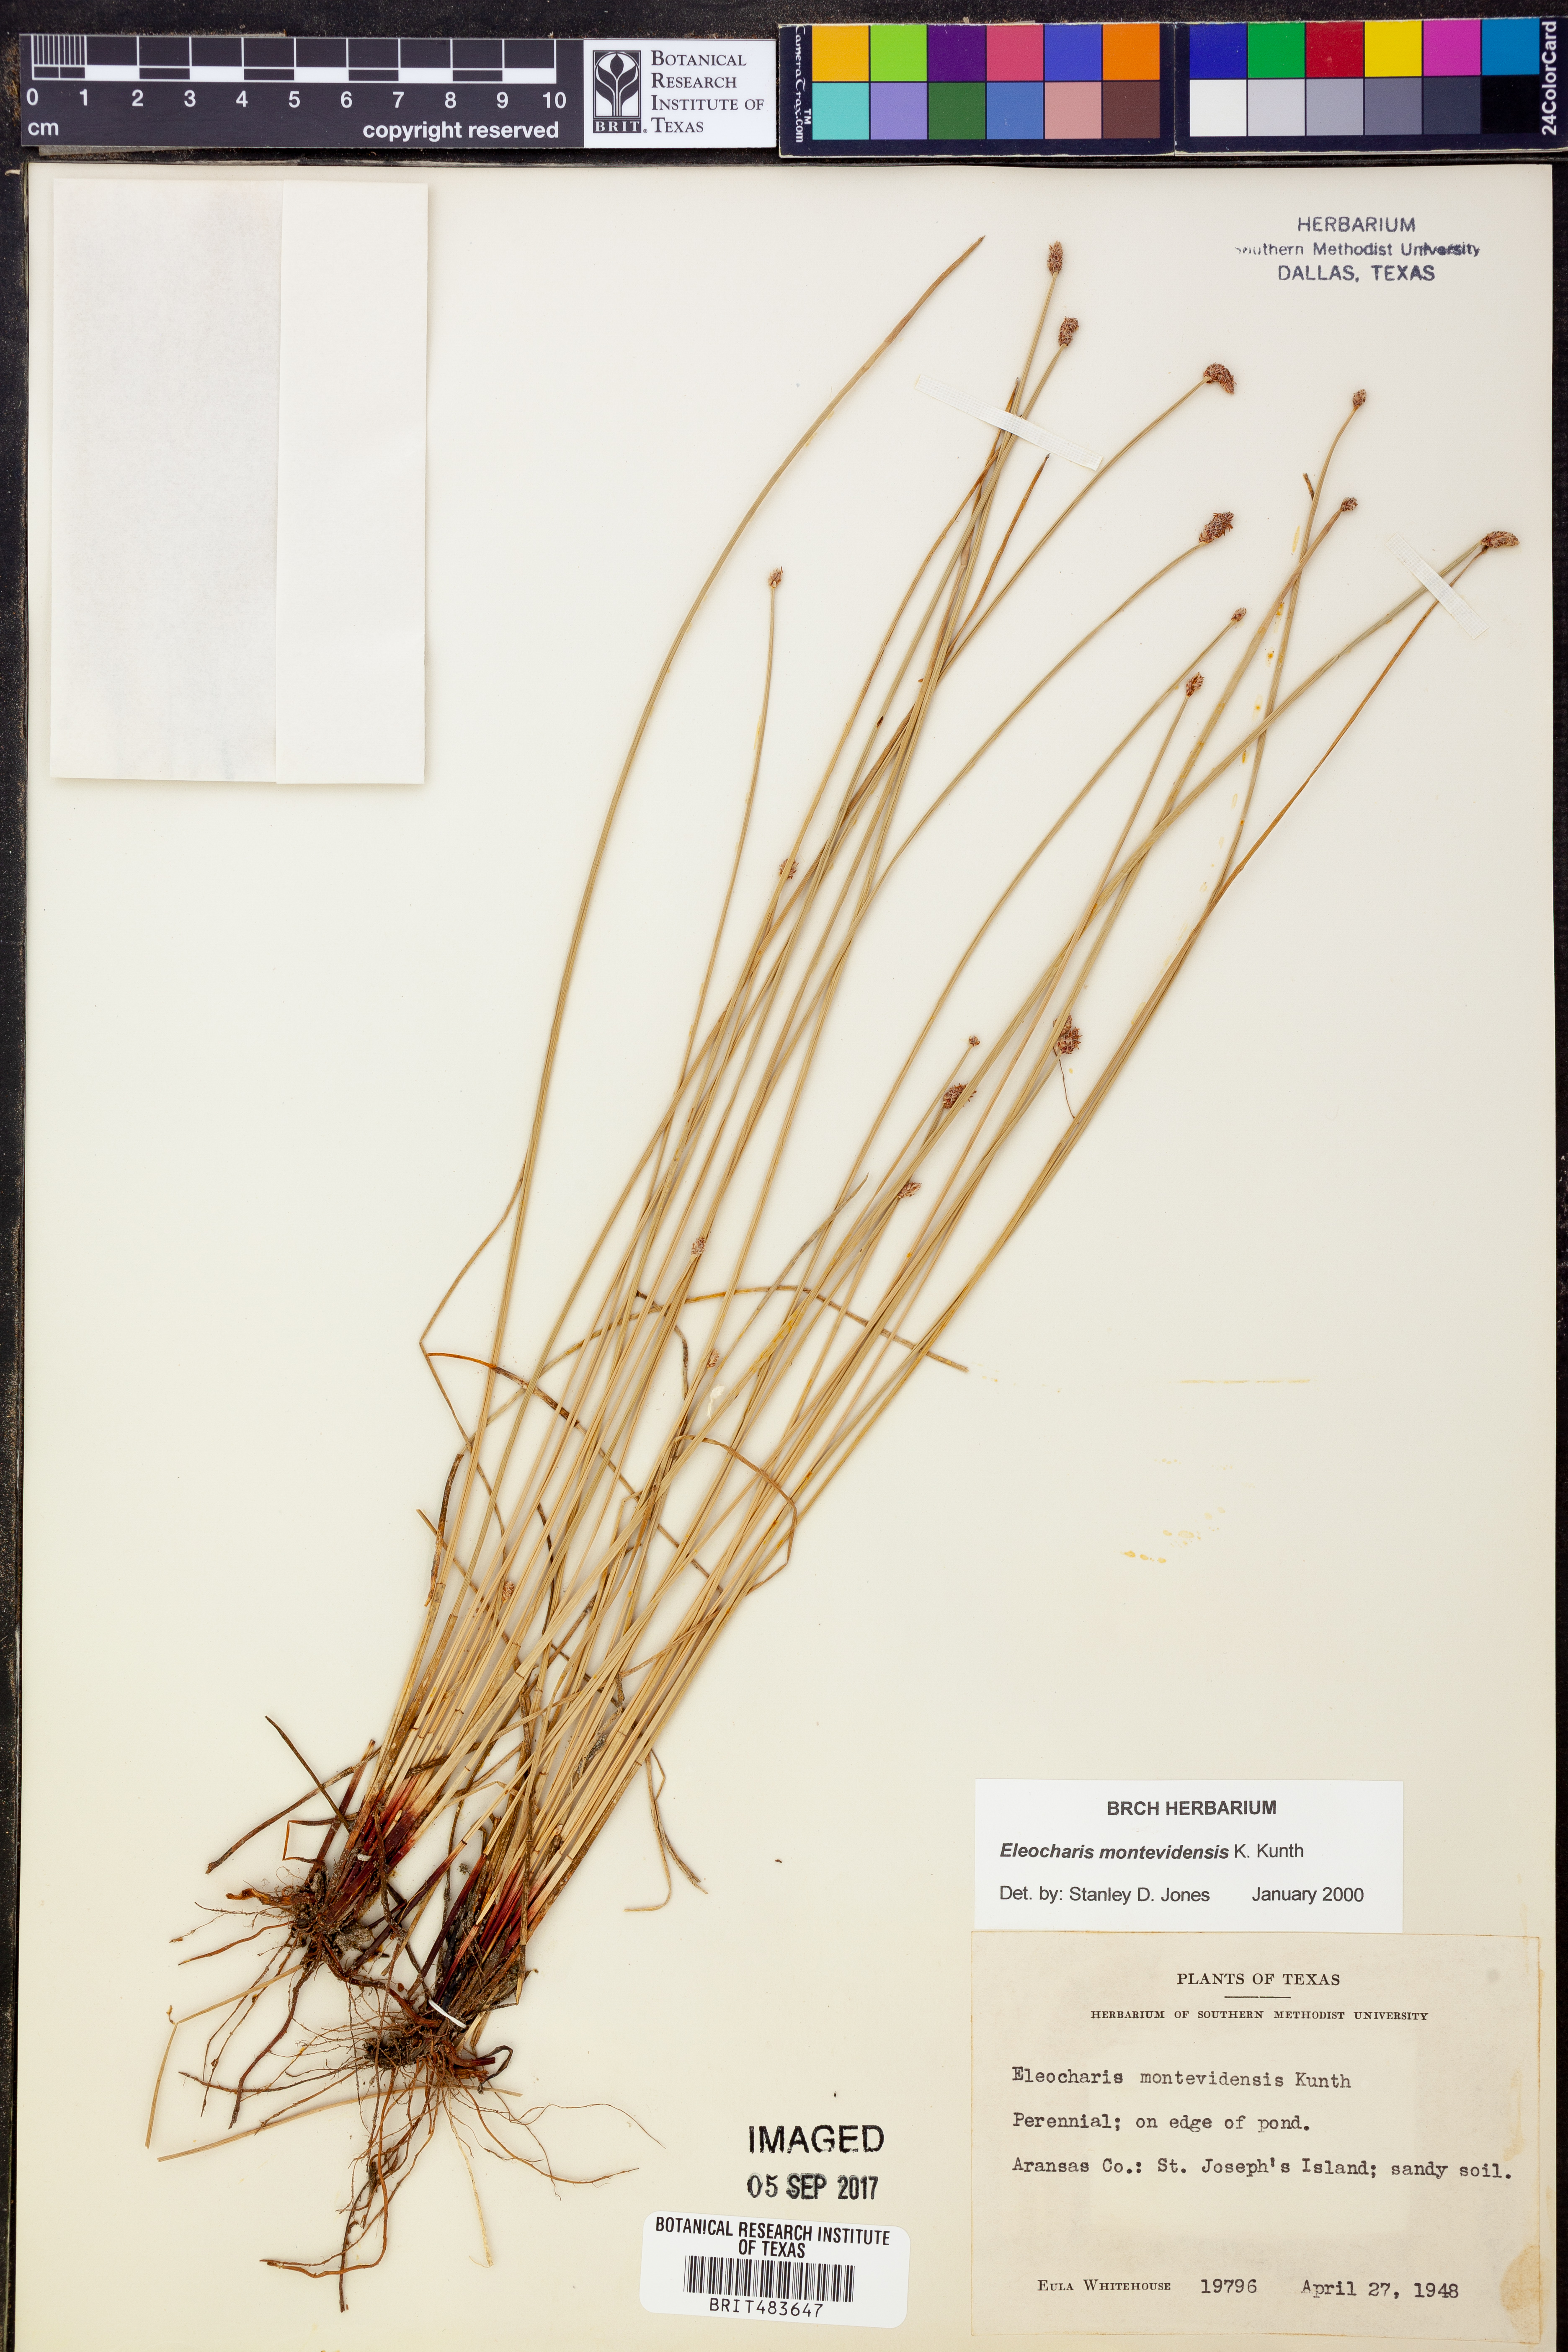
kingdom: Plantae
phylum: Tracheophyta
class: Liliopsida
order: Poales
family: Cyperaceae
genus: Eleocharis
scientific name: Eleocharis montevidensis
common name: Sand spike-rush
